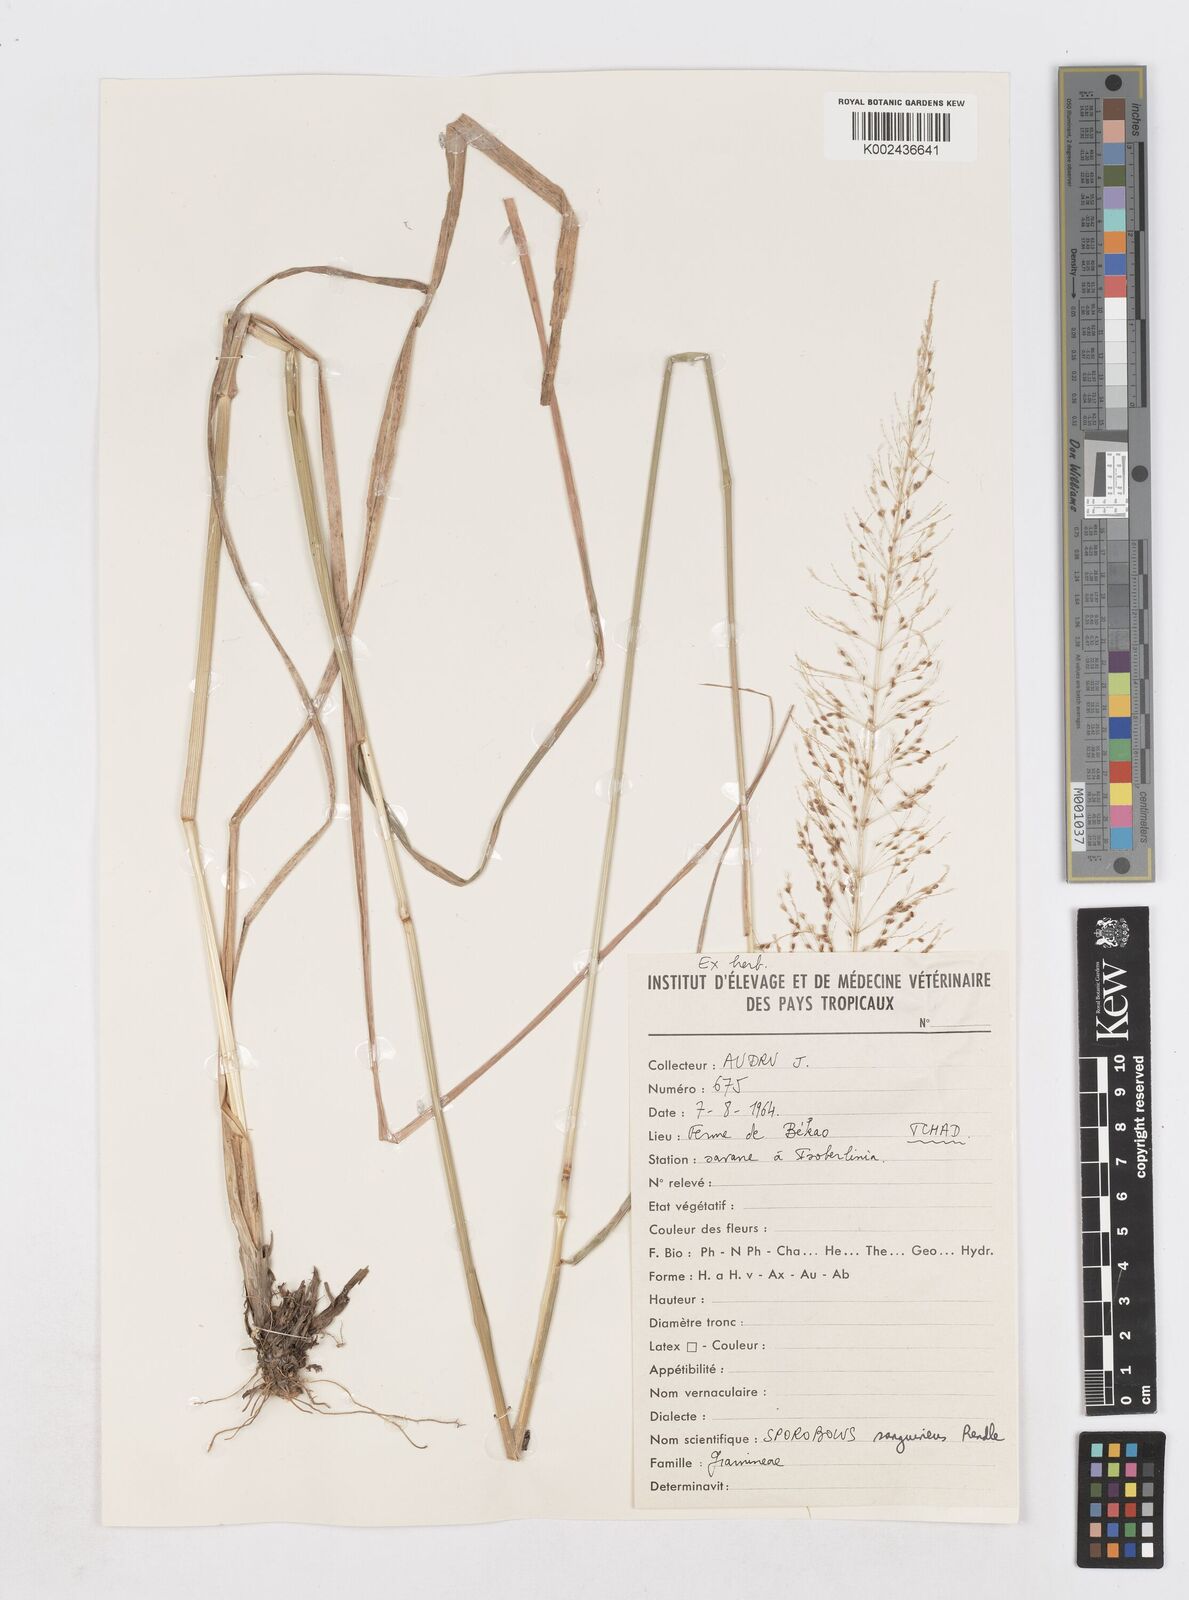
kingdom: Plantae
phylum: Tracheophyta
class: Liliopsida
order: Poales
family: Poaceae
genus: Sporobolus
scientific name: Sporobolus sanguineus
